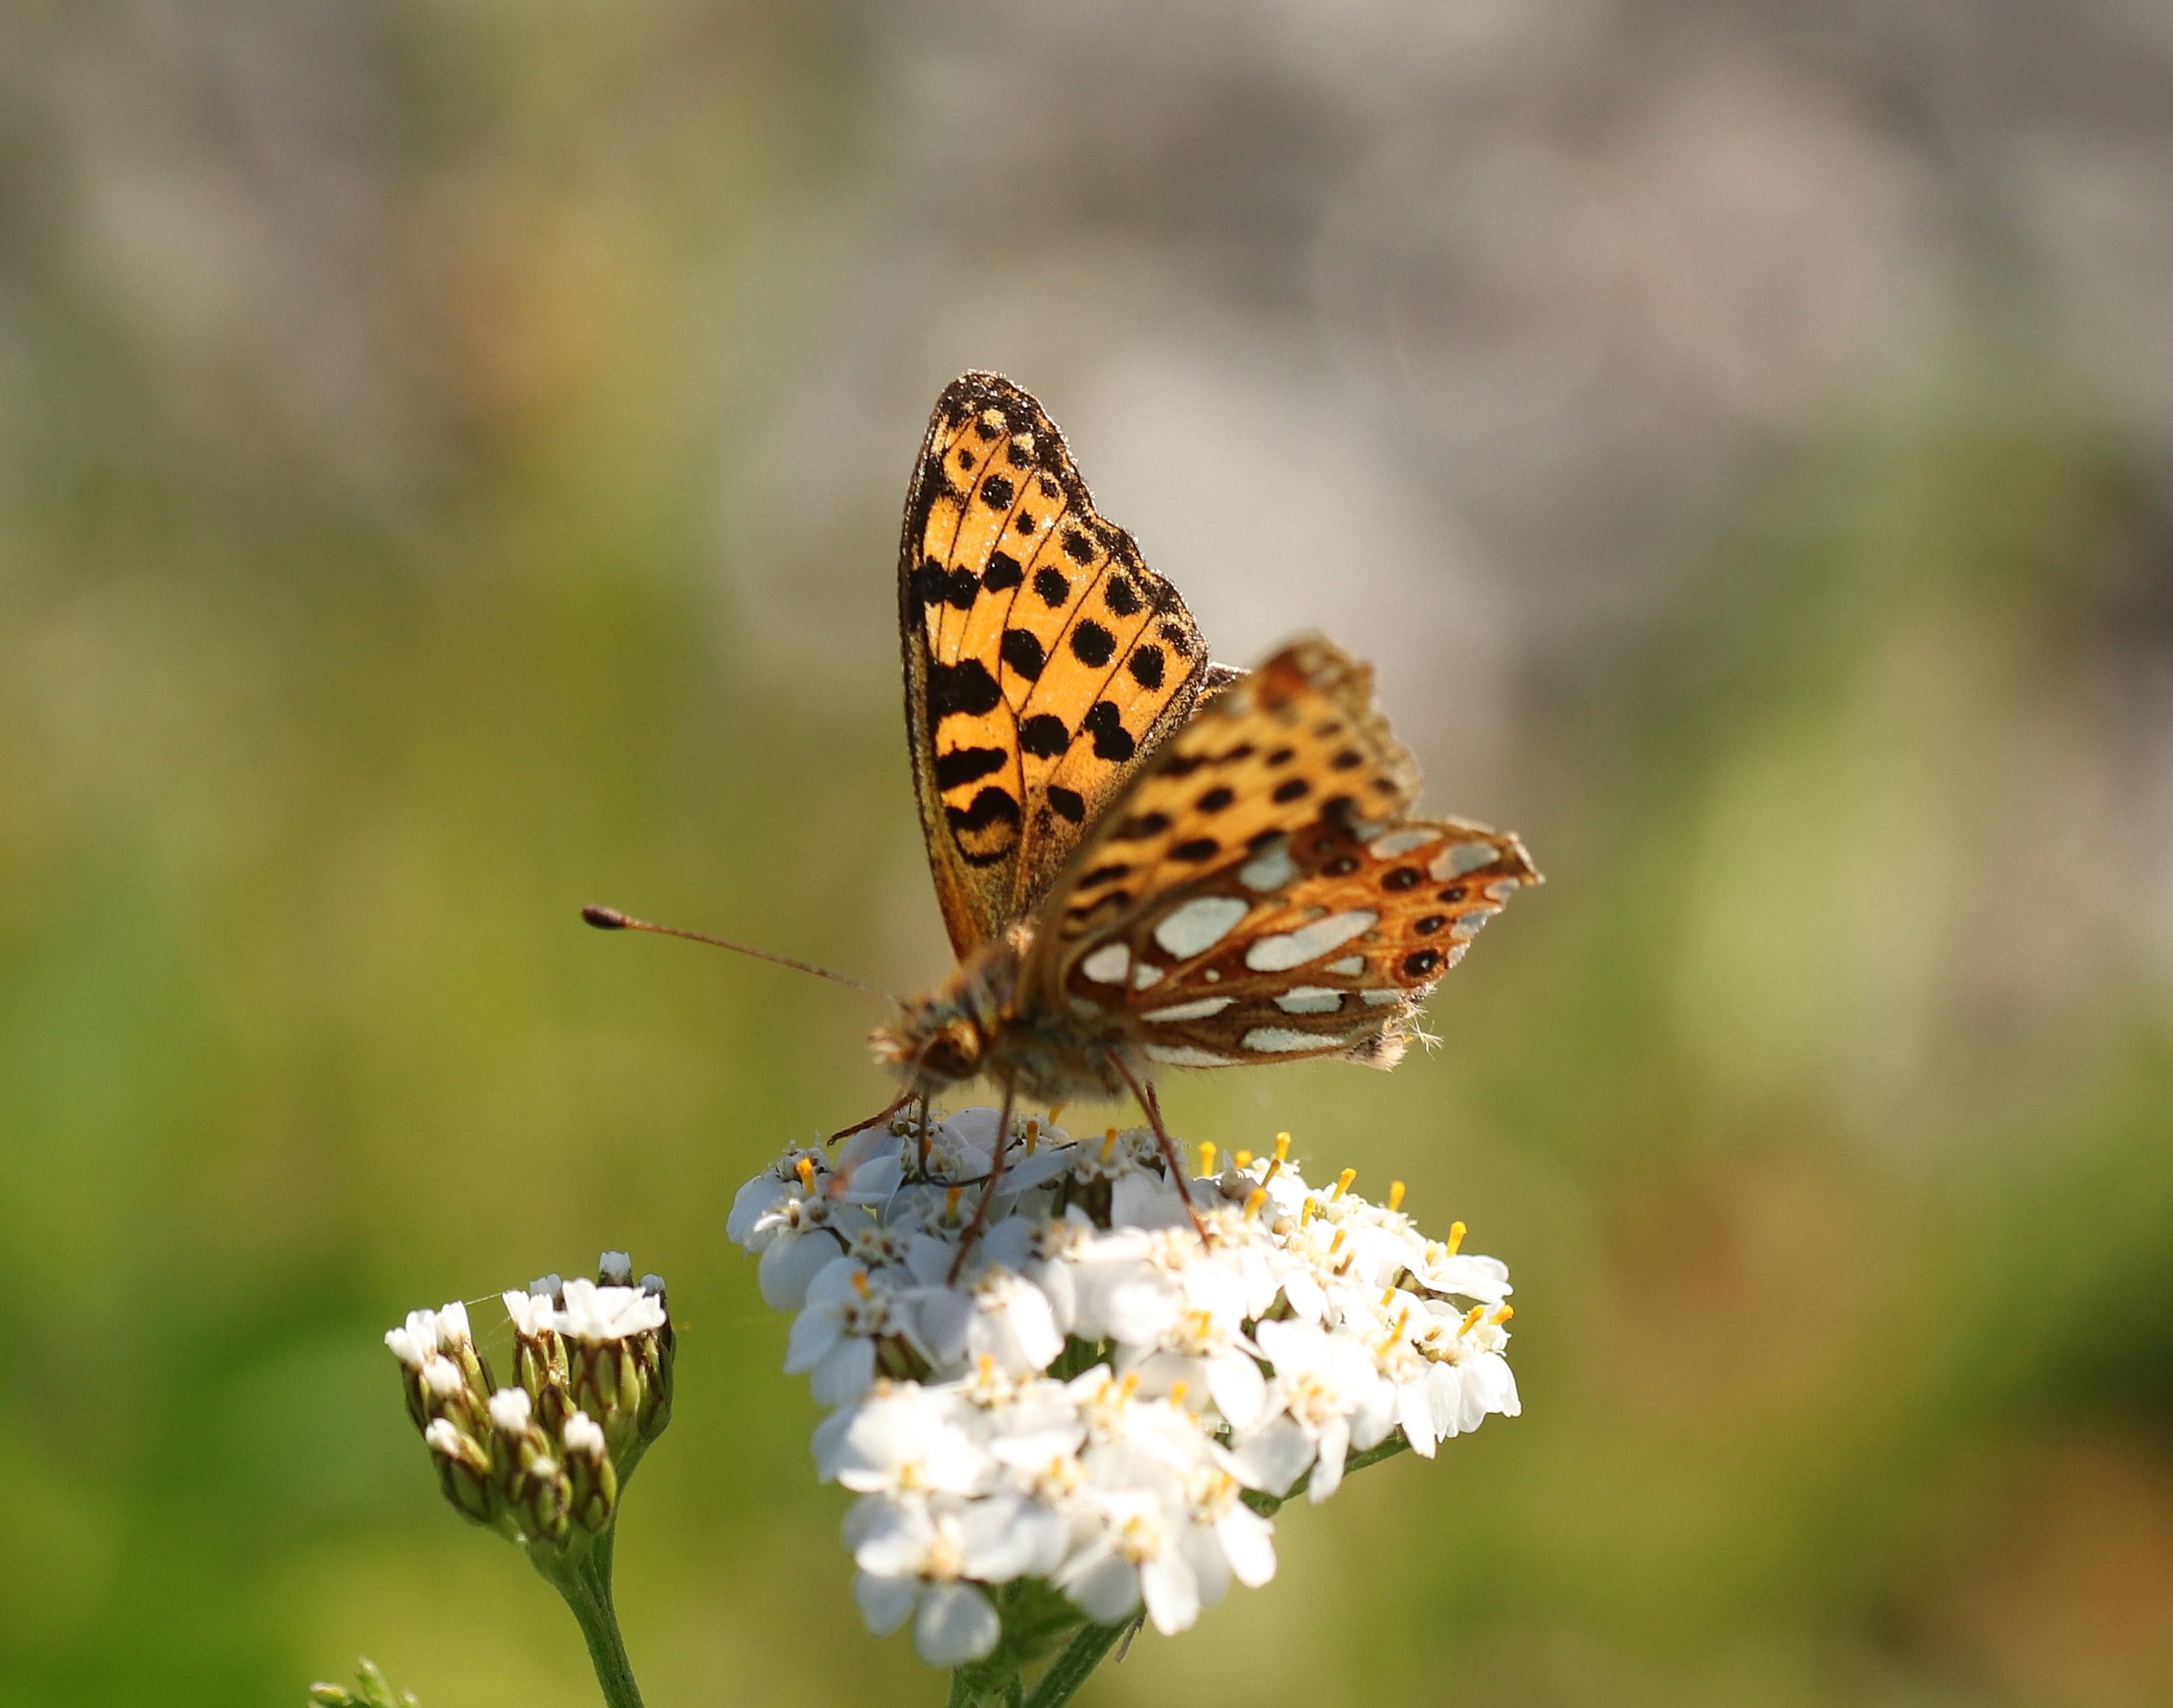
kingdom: Animalia
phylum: Arthropoda
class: Insecta
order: Lepidoptera
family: Nymphalidae
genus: Issoria
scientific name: Issoria lathonia
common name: Storplettet perlemorsommerfugl
